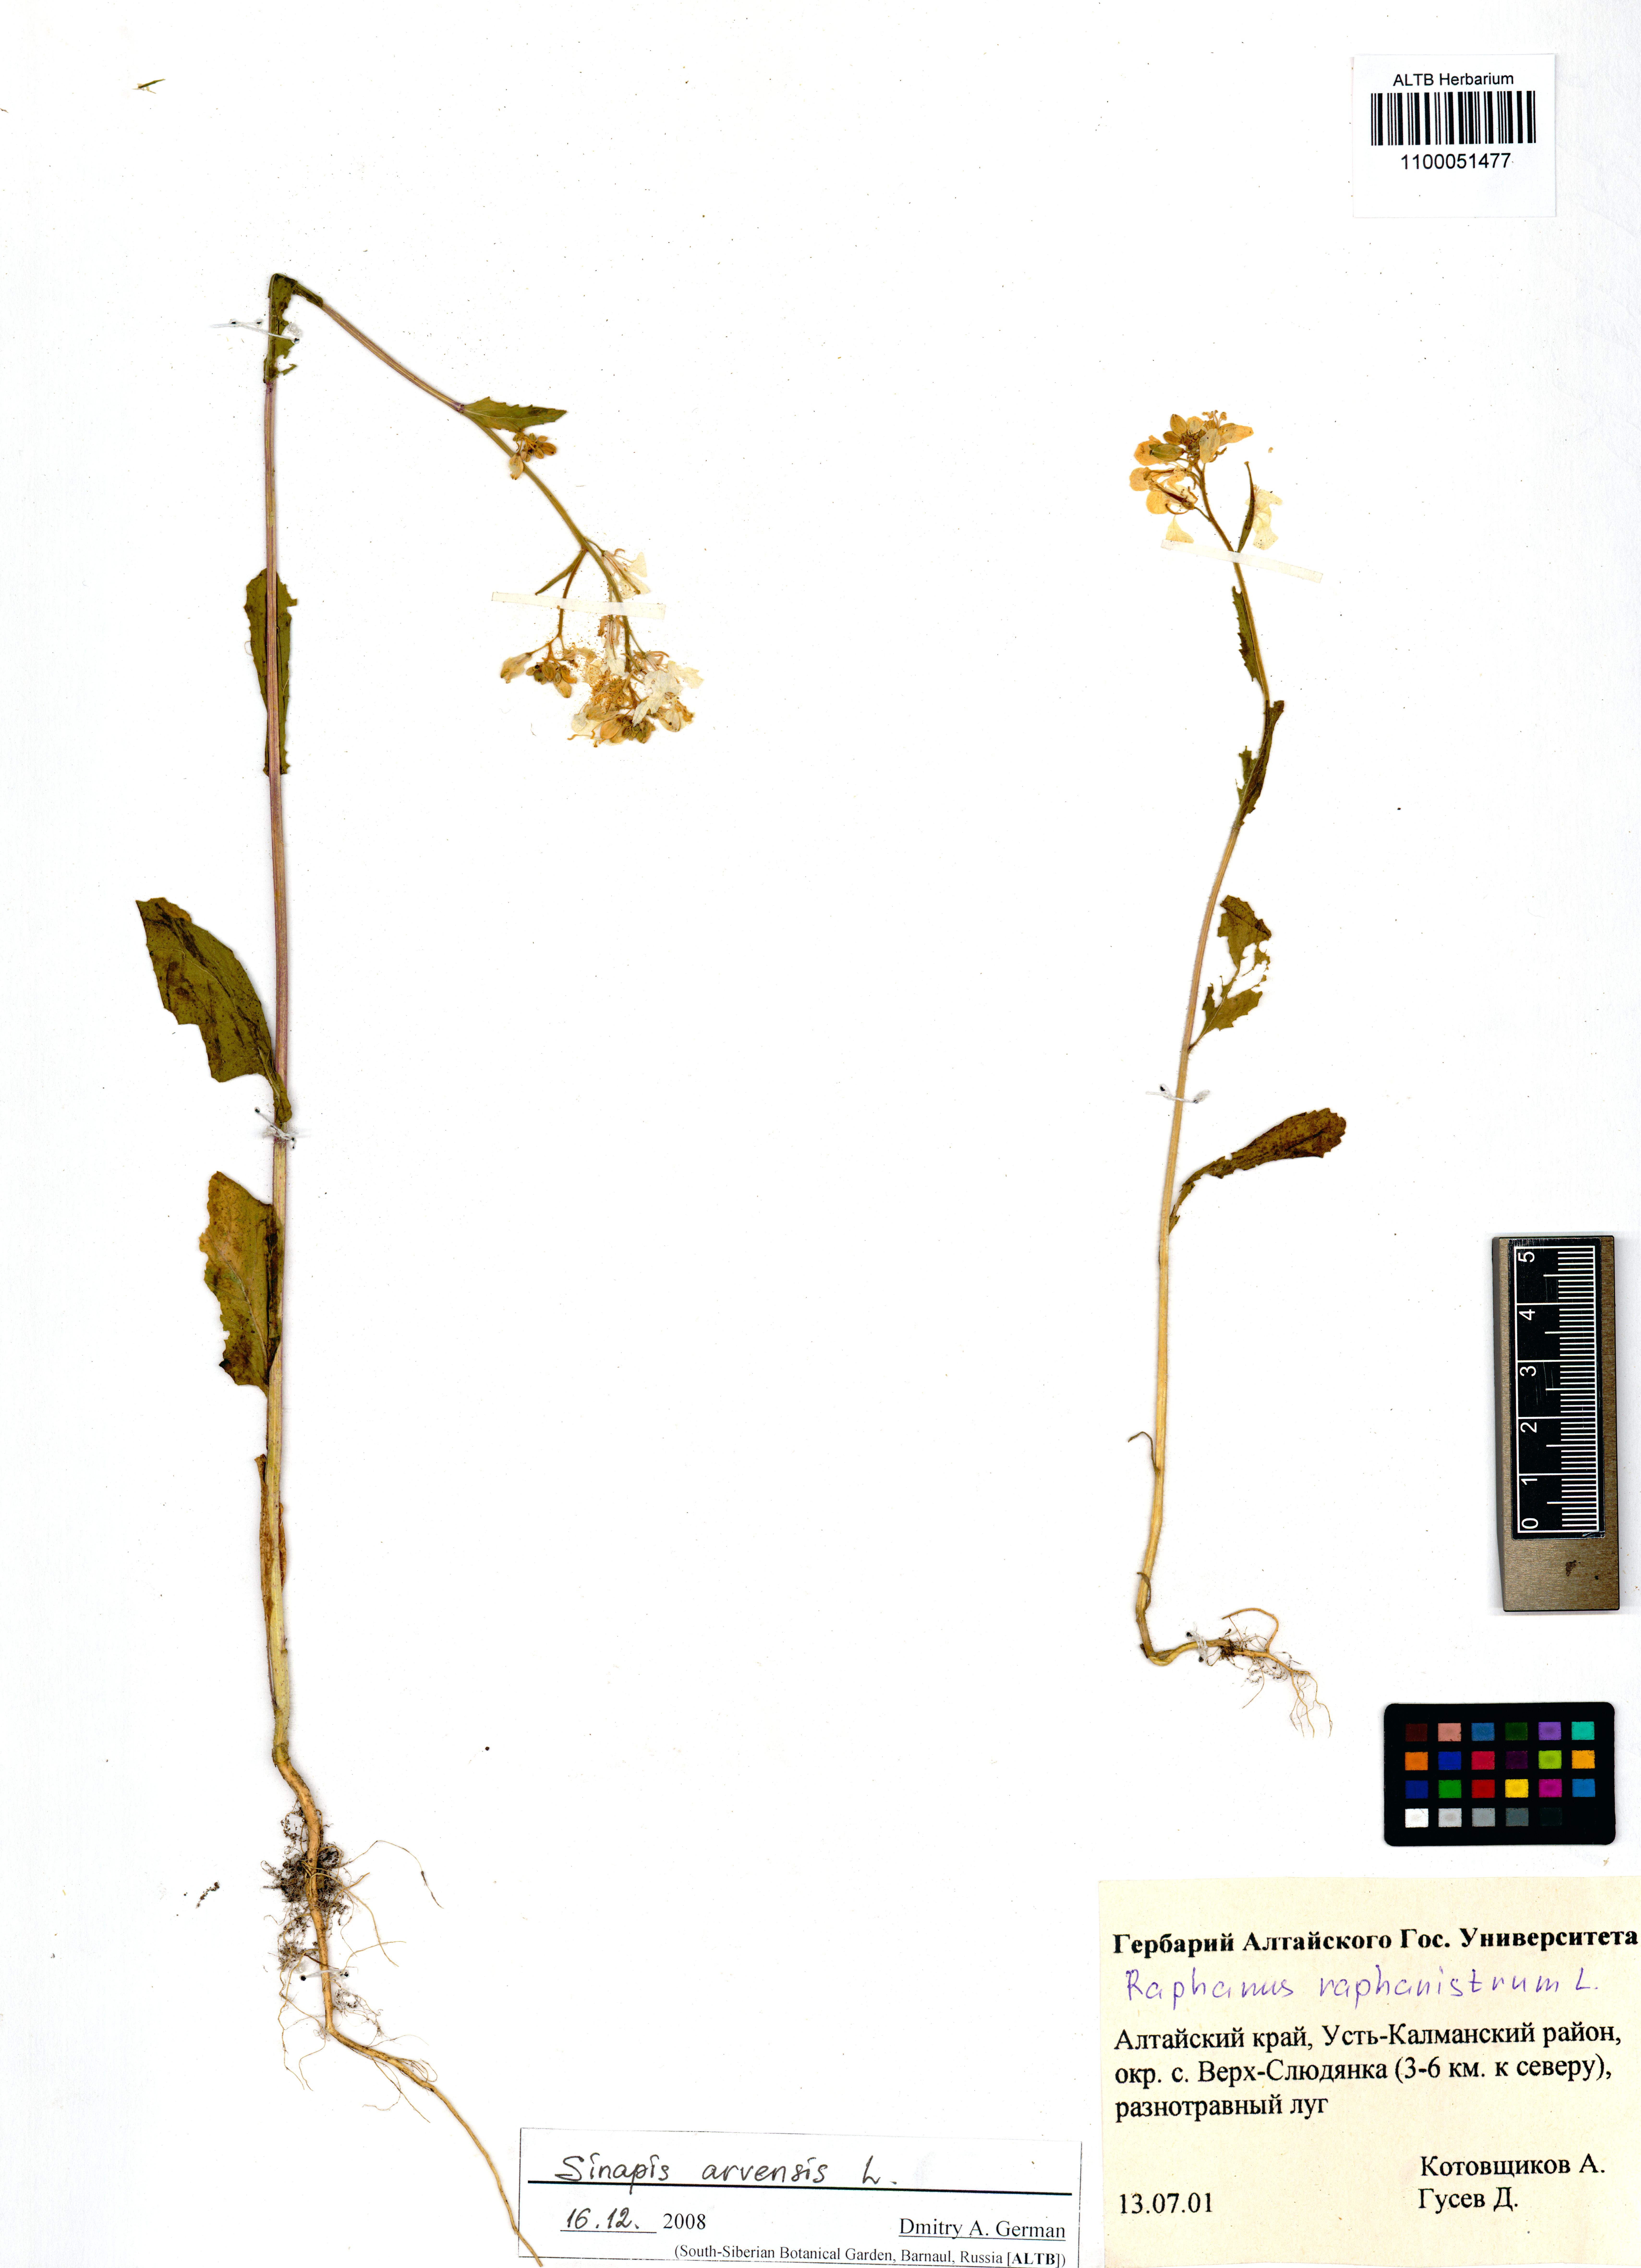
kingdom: Plantae
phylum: Tracheophyta
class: Magnoliopsida
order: Brassicales
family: Brassicaceae
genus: Sinapis
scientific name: Sinapis arvensis
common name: Charlock
